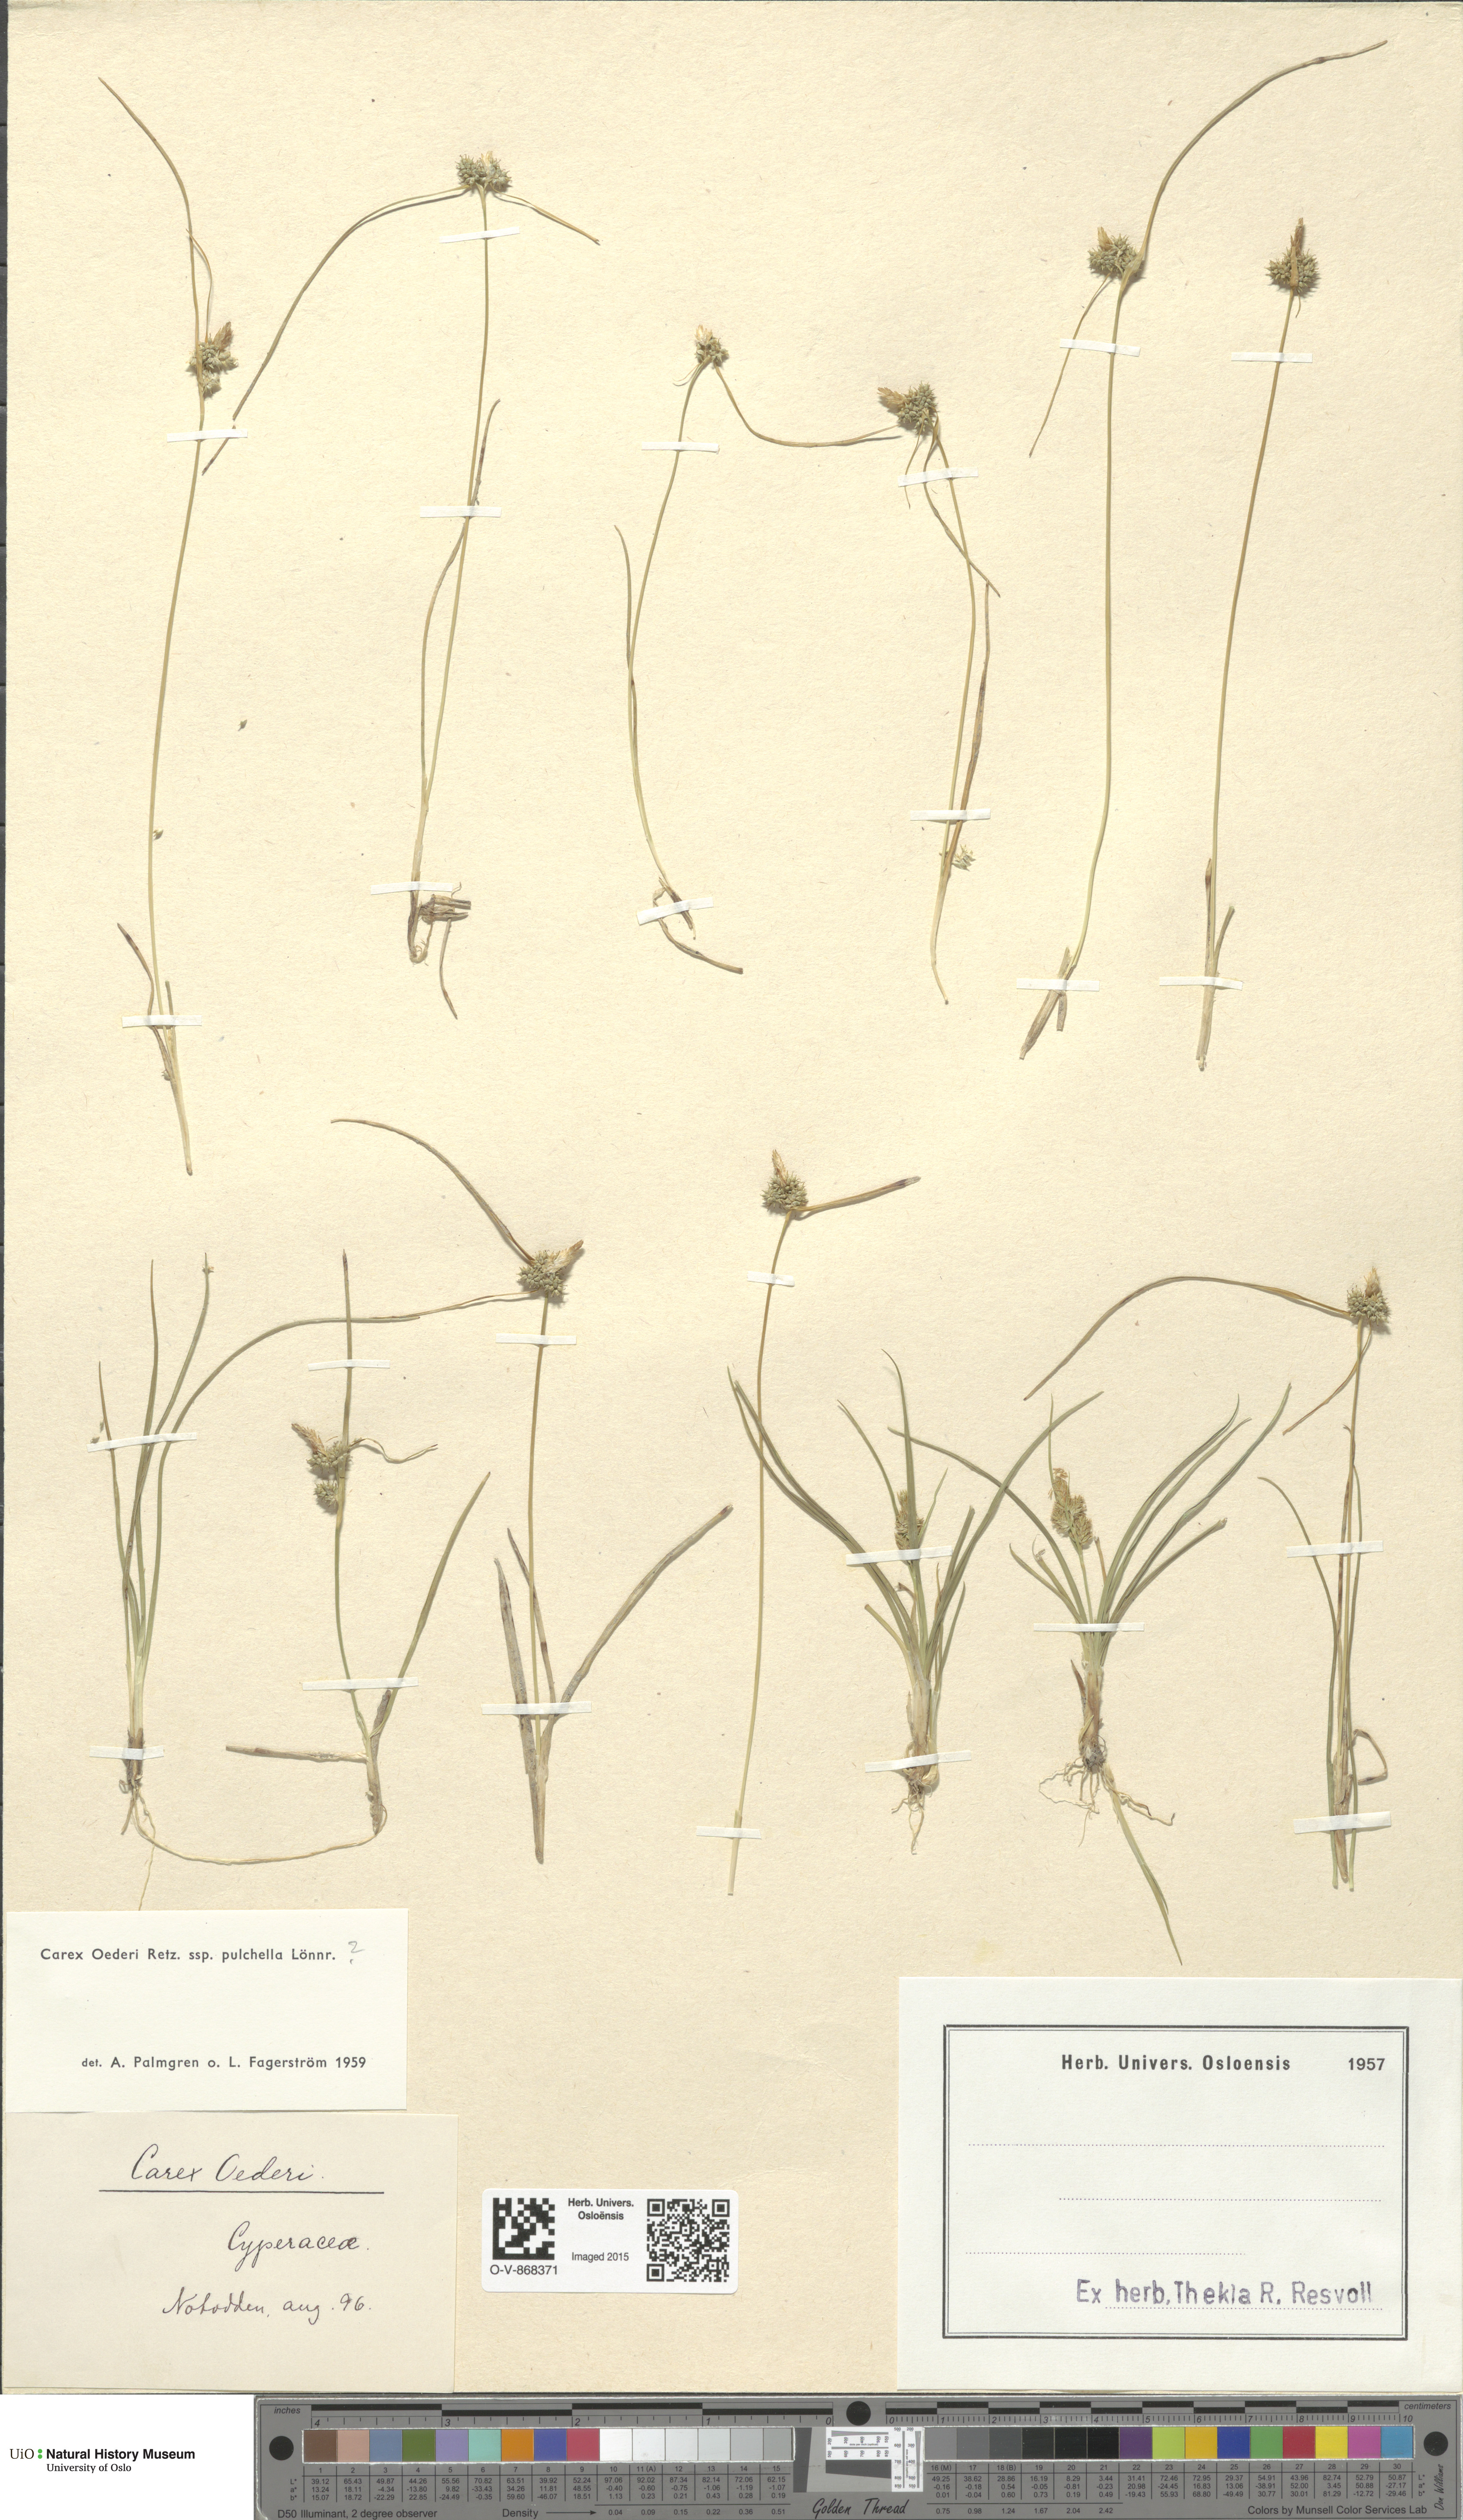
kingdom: Plantae
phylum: Tracheophyta
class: Liliopsida
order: Poales
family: Cyperaceae
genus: Carex
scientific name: Carex oederi
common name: Common & small-fruited yellow-sedge
